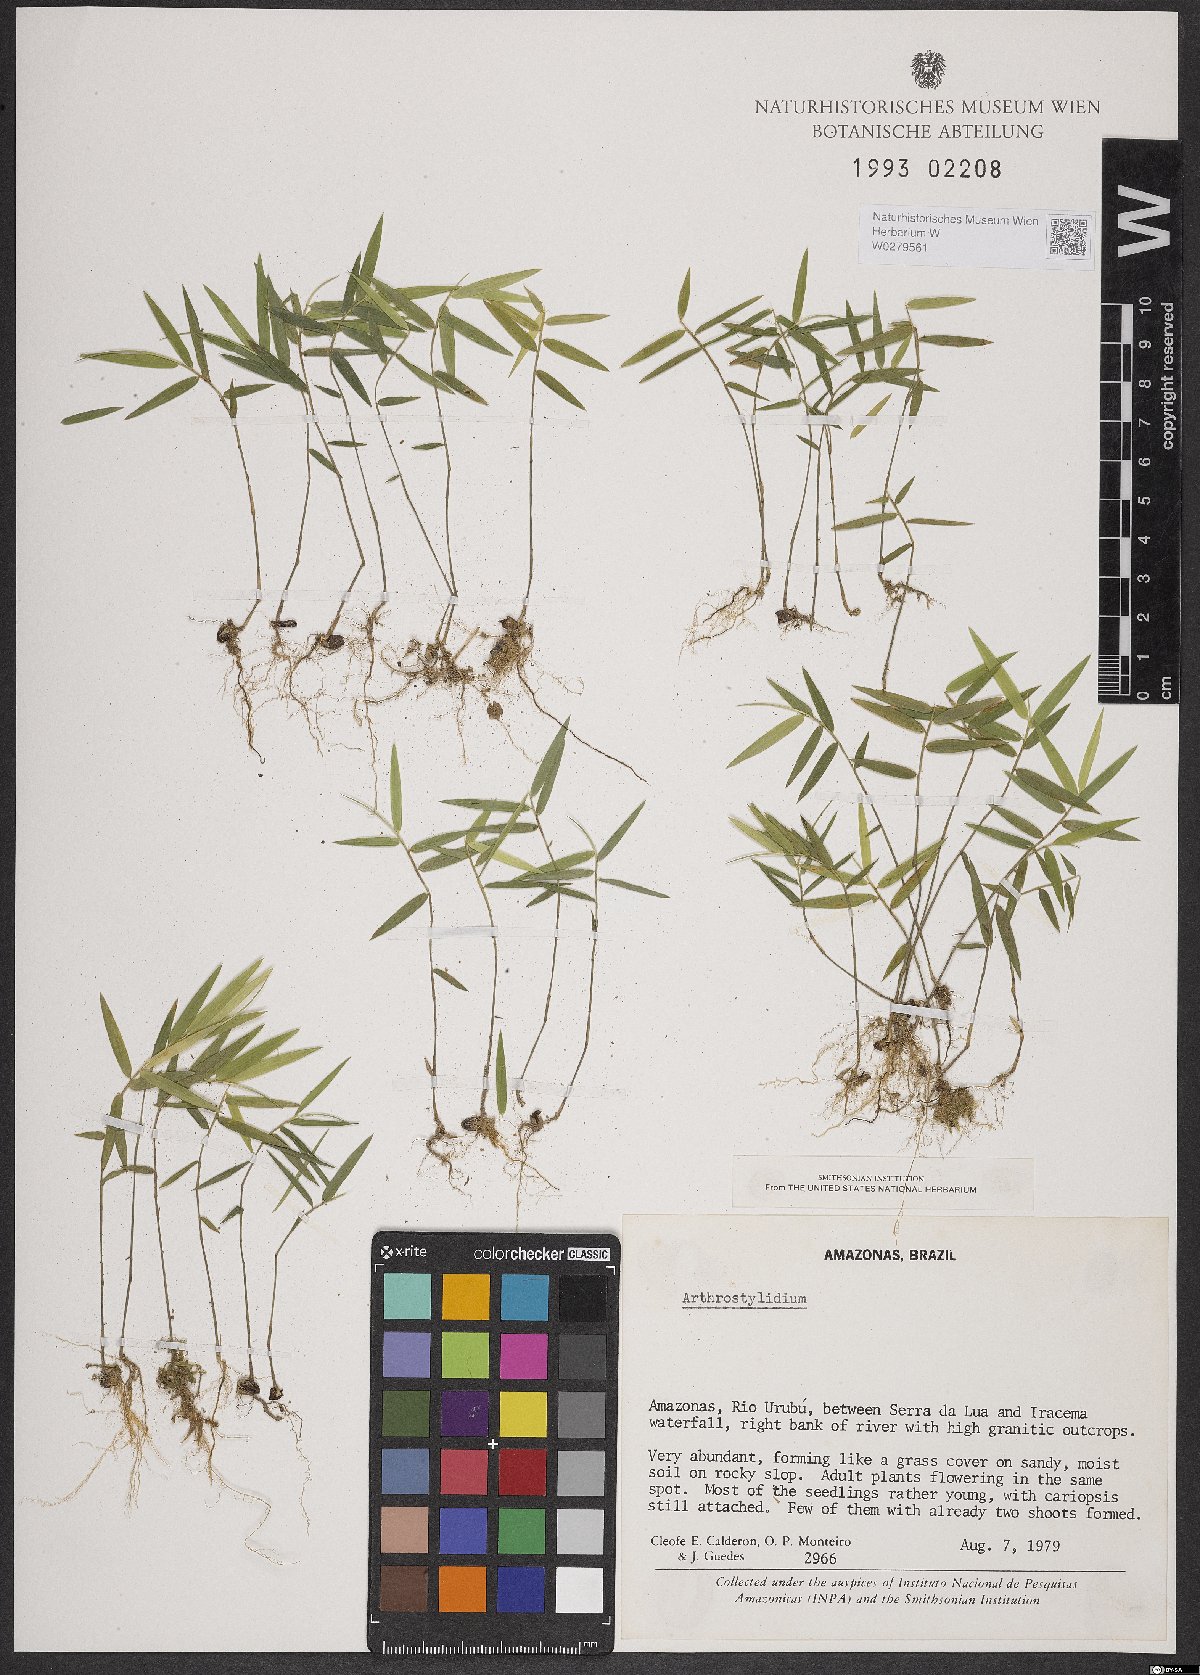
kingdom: Plantae
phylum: Tracheophyta
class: Liliopsida
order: Poales
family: Poaceae
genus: Arthrostylidium
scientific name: Arthrostylidium
